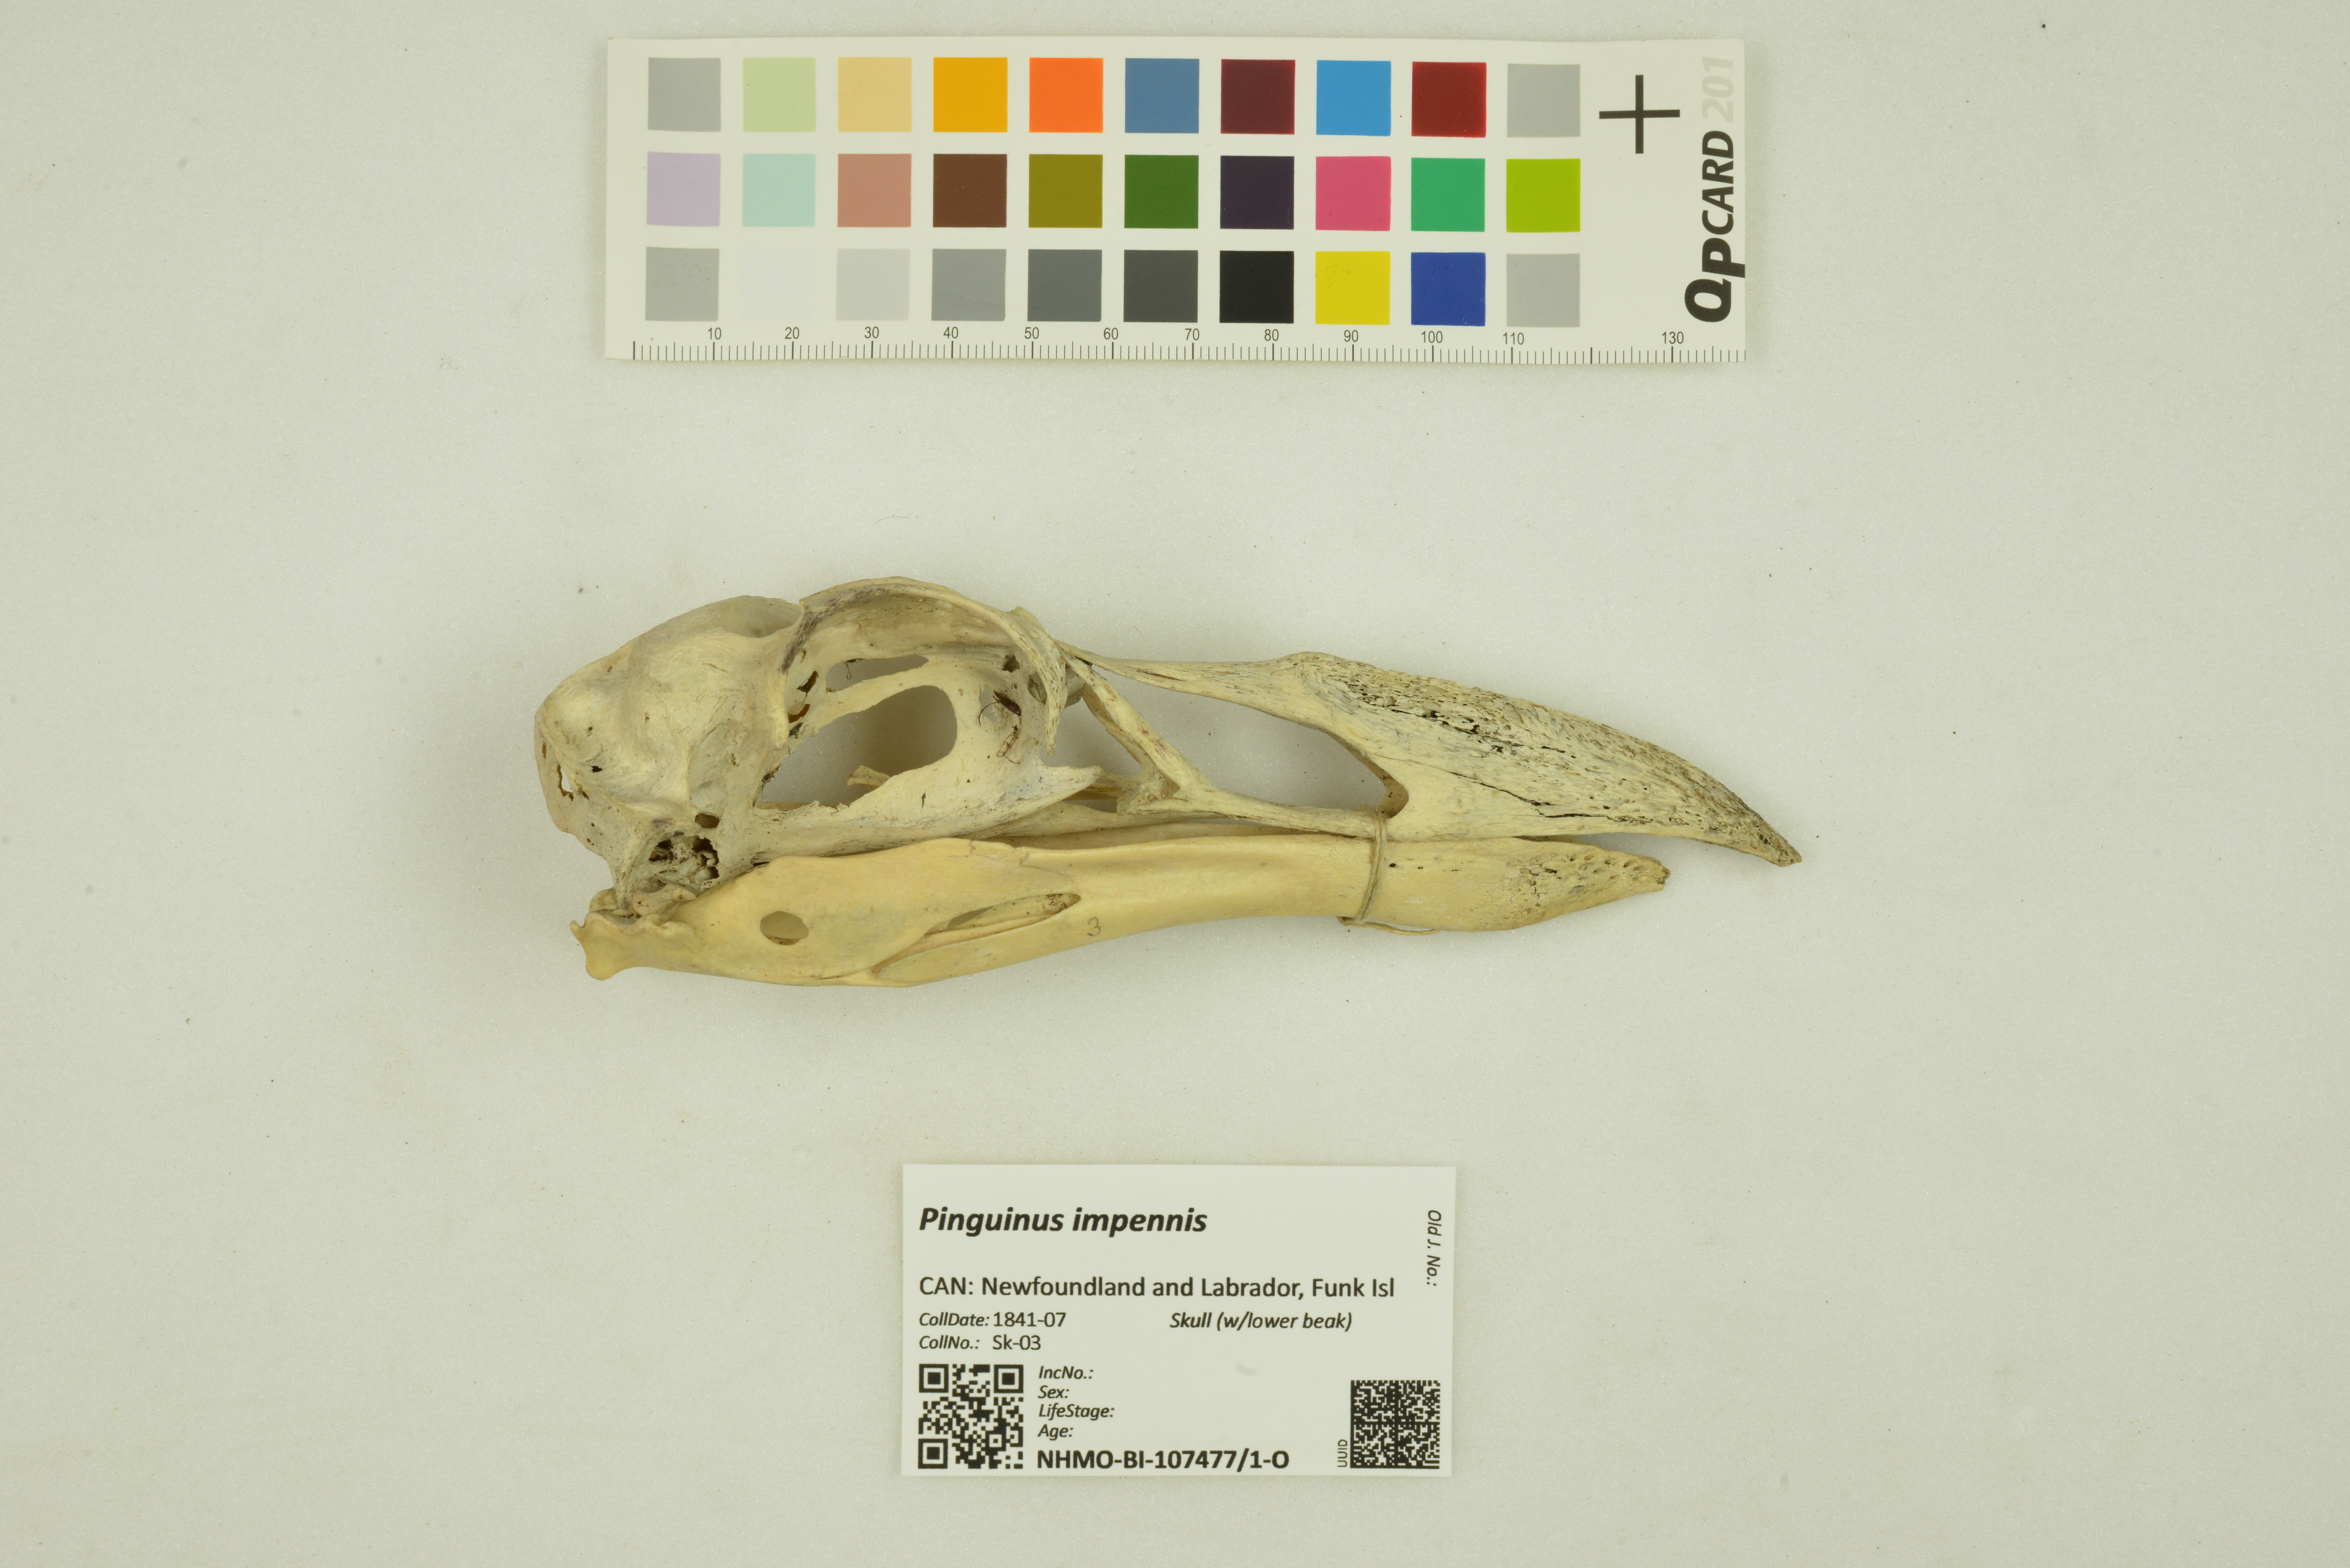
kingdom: Animalia
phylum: Chordata
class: Aves
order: Charadriiformes
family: Alcidae
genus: Pinguinus
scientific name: Pinguinus impennis
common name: Great auk
